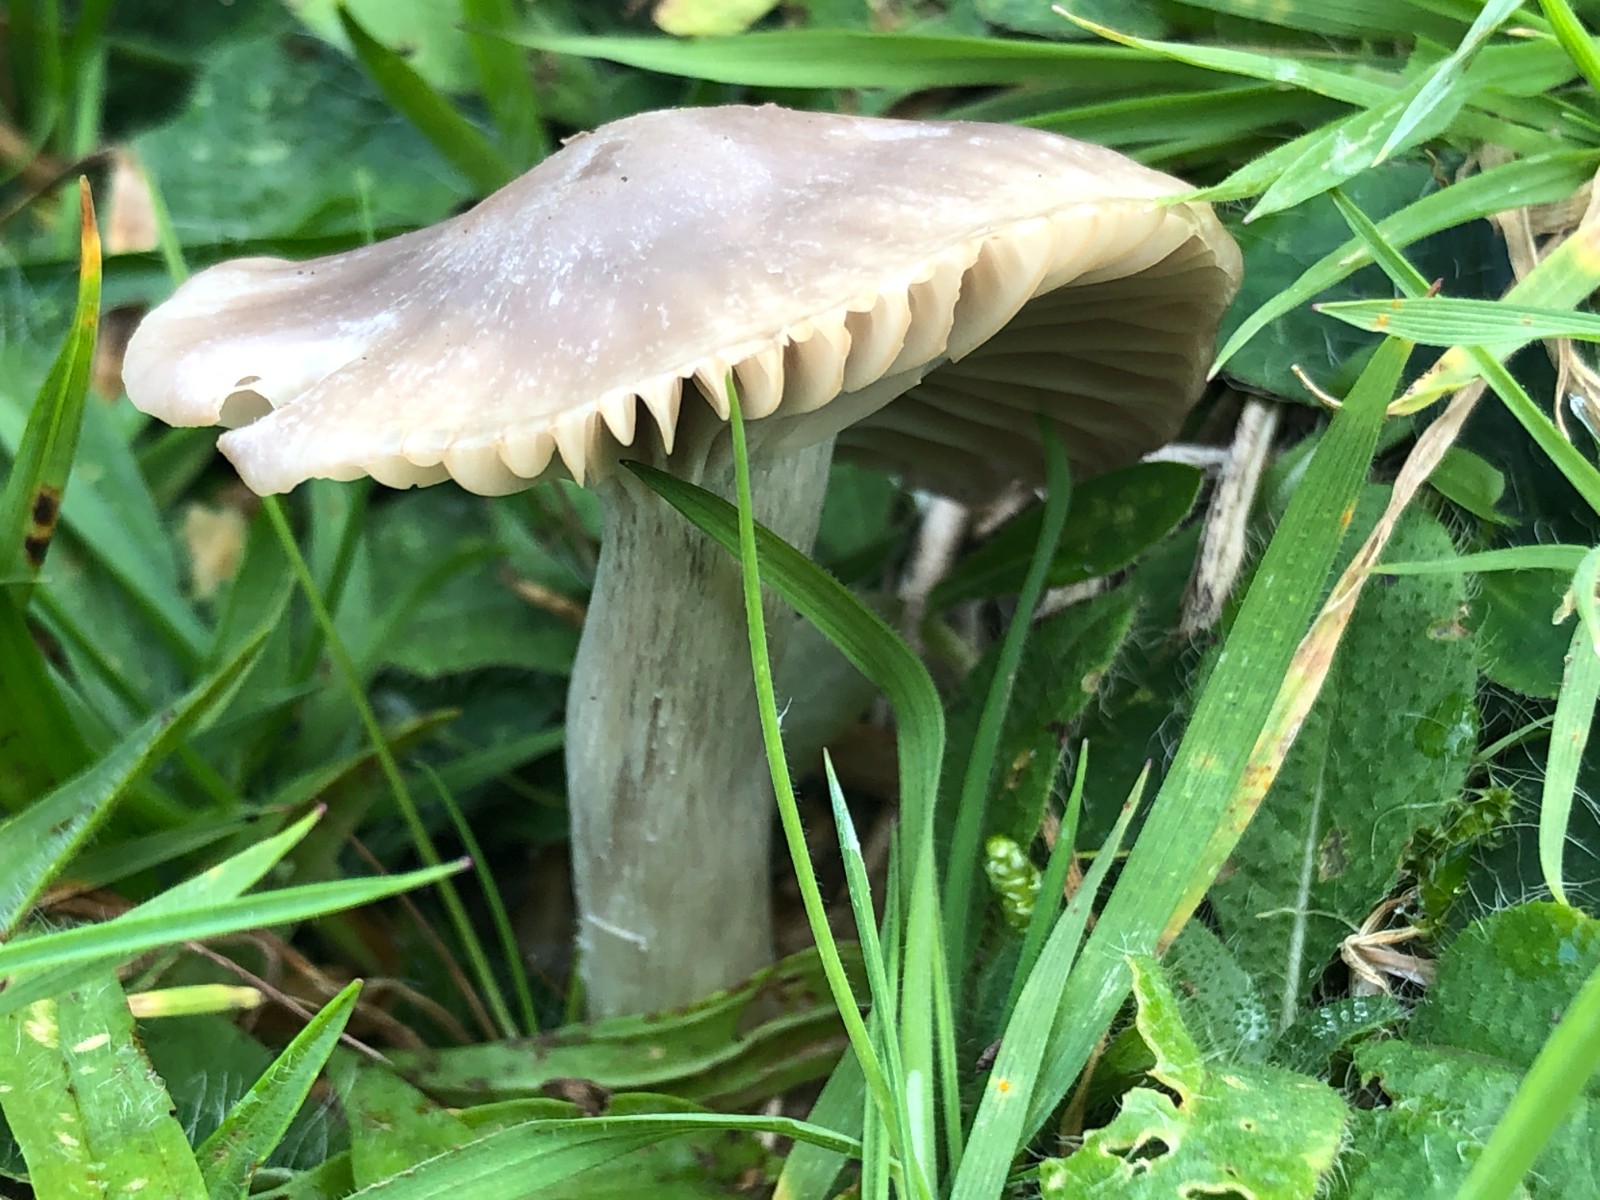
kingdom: Fungi
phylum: Basidiomycota
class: Agaricomycetes
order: Agaricales
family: Hygrophoraceae
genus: Cuphophyllus
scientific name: Cuphophyllus flavipes
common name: gulfodet vokshat
